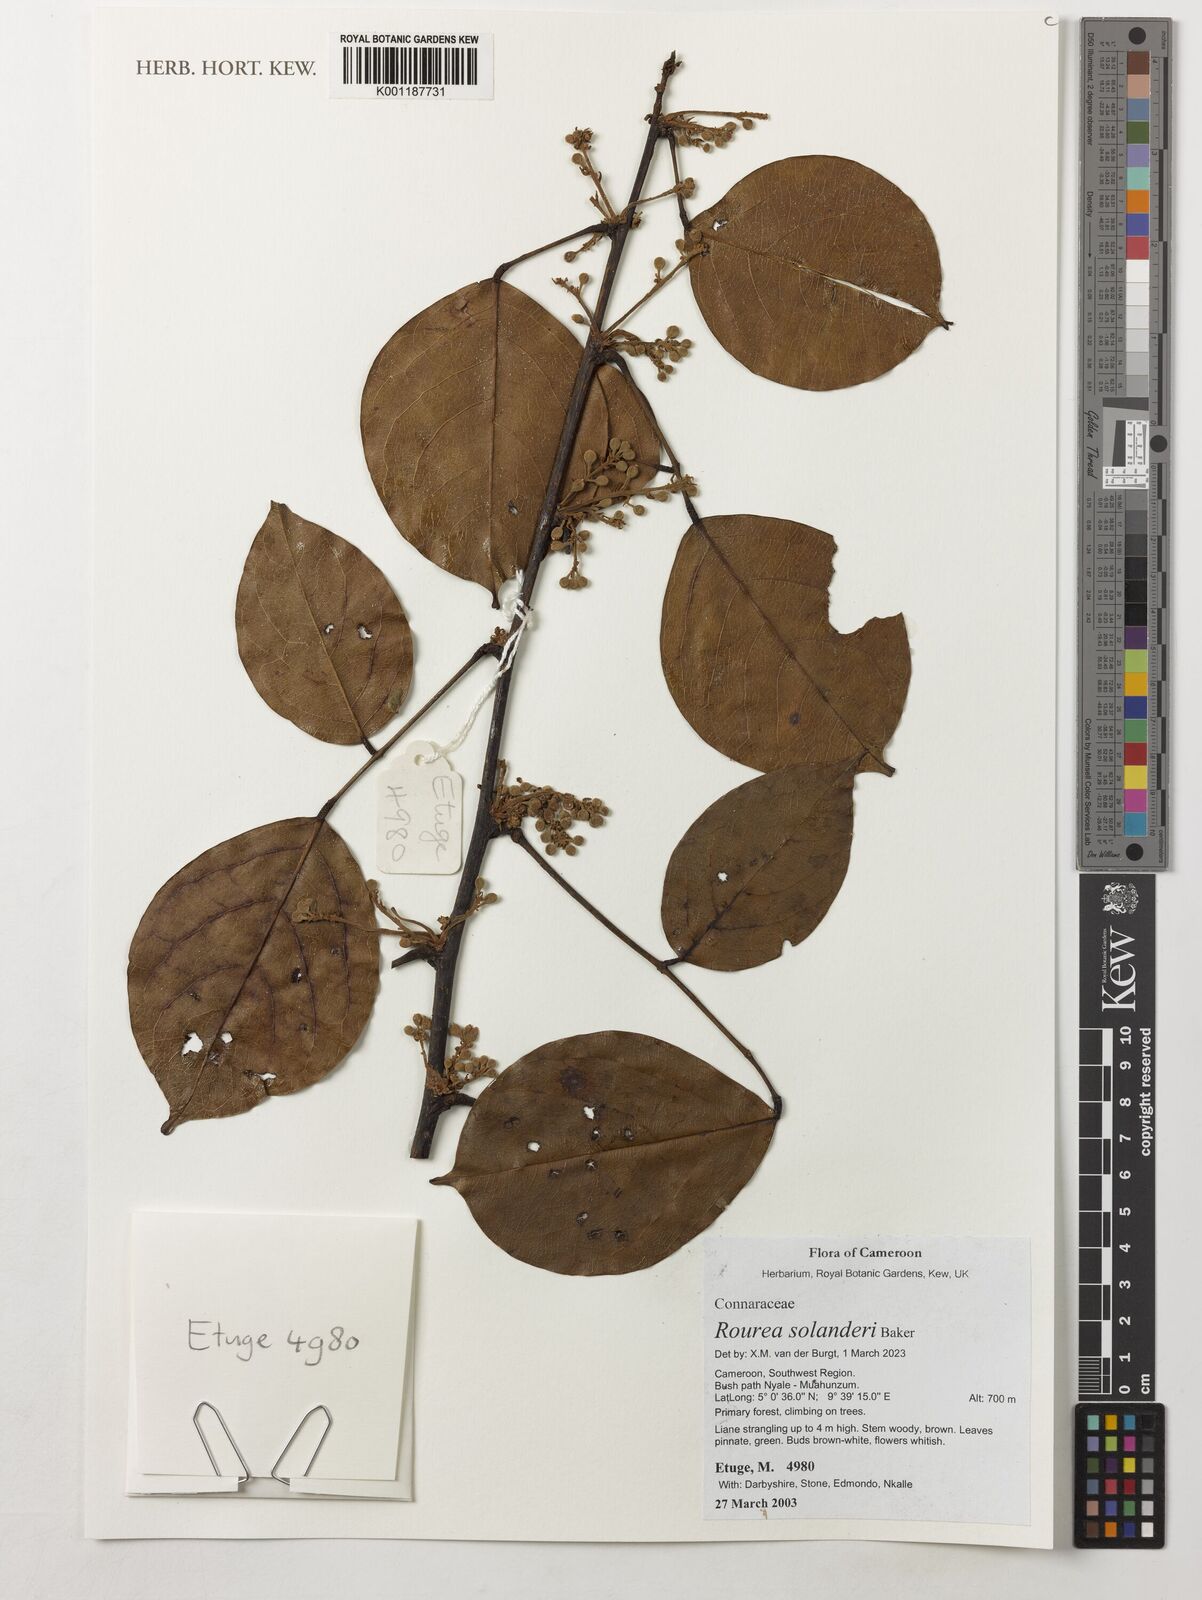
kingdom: Plantae
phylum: Tracheophyta
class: Magnoliopsida
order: Oxalidales
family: Connaraceae
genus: Rourea
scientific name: Rourea solanderi
